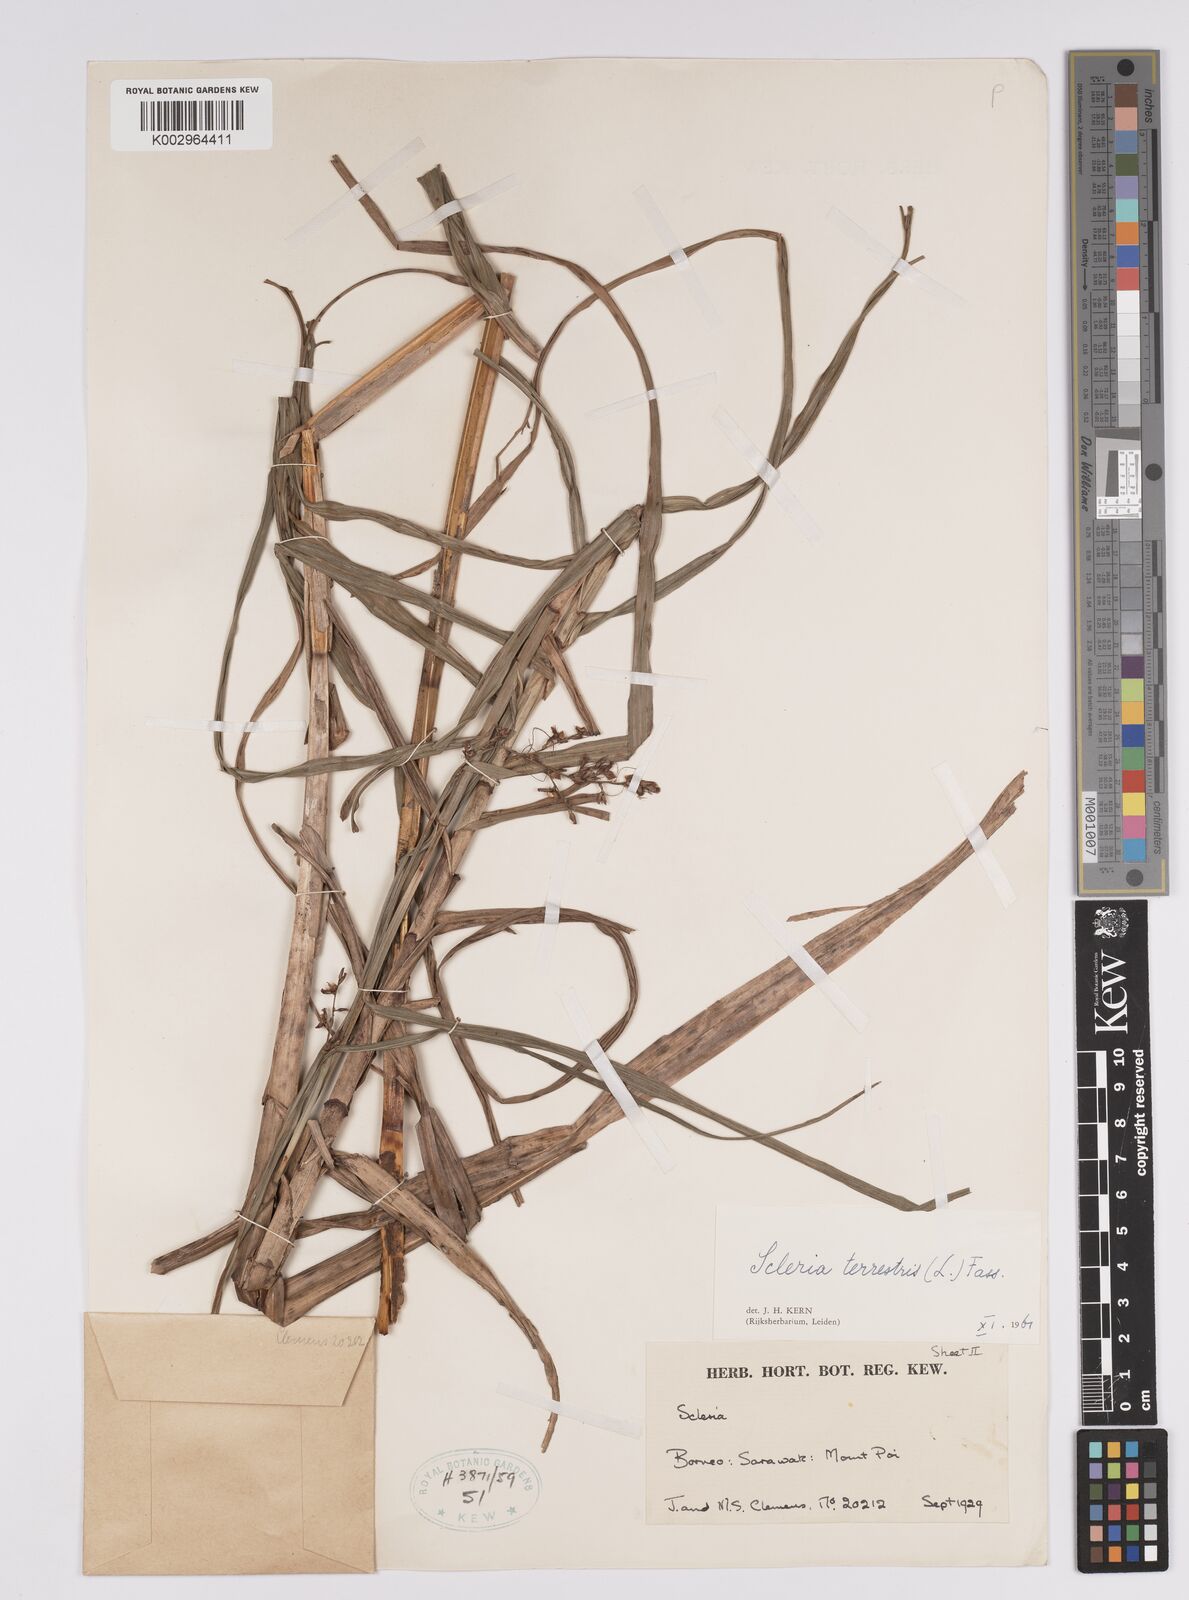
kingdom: Plantae
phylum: Tracheophyta
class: Liliopsida
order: Poales
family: Cyperaceae
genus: Scleria
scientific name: Scleria terrestris
